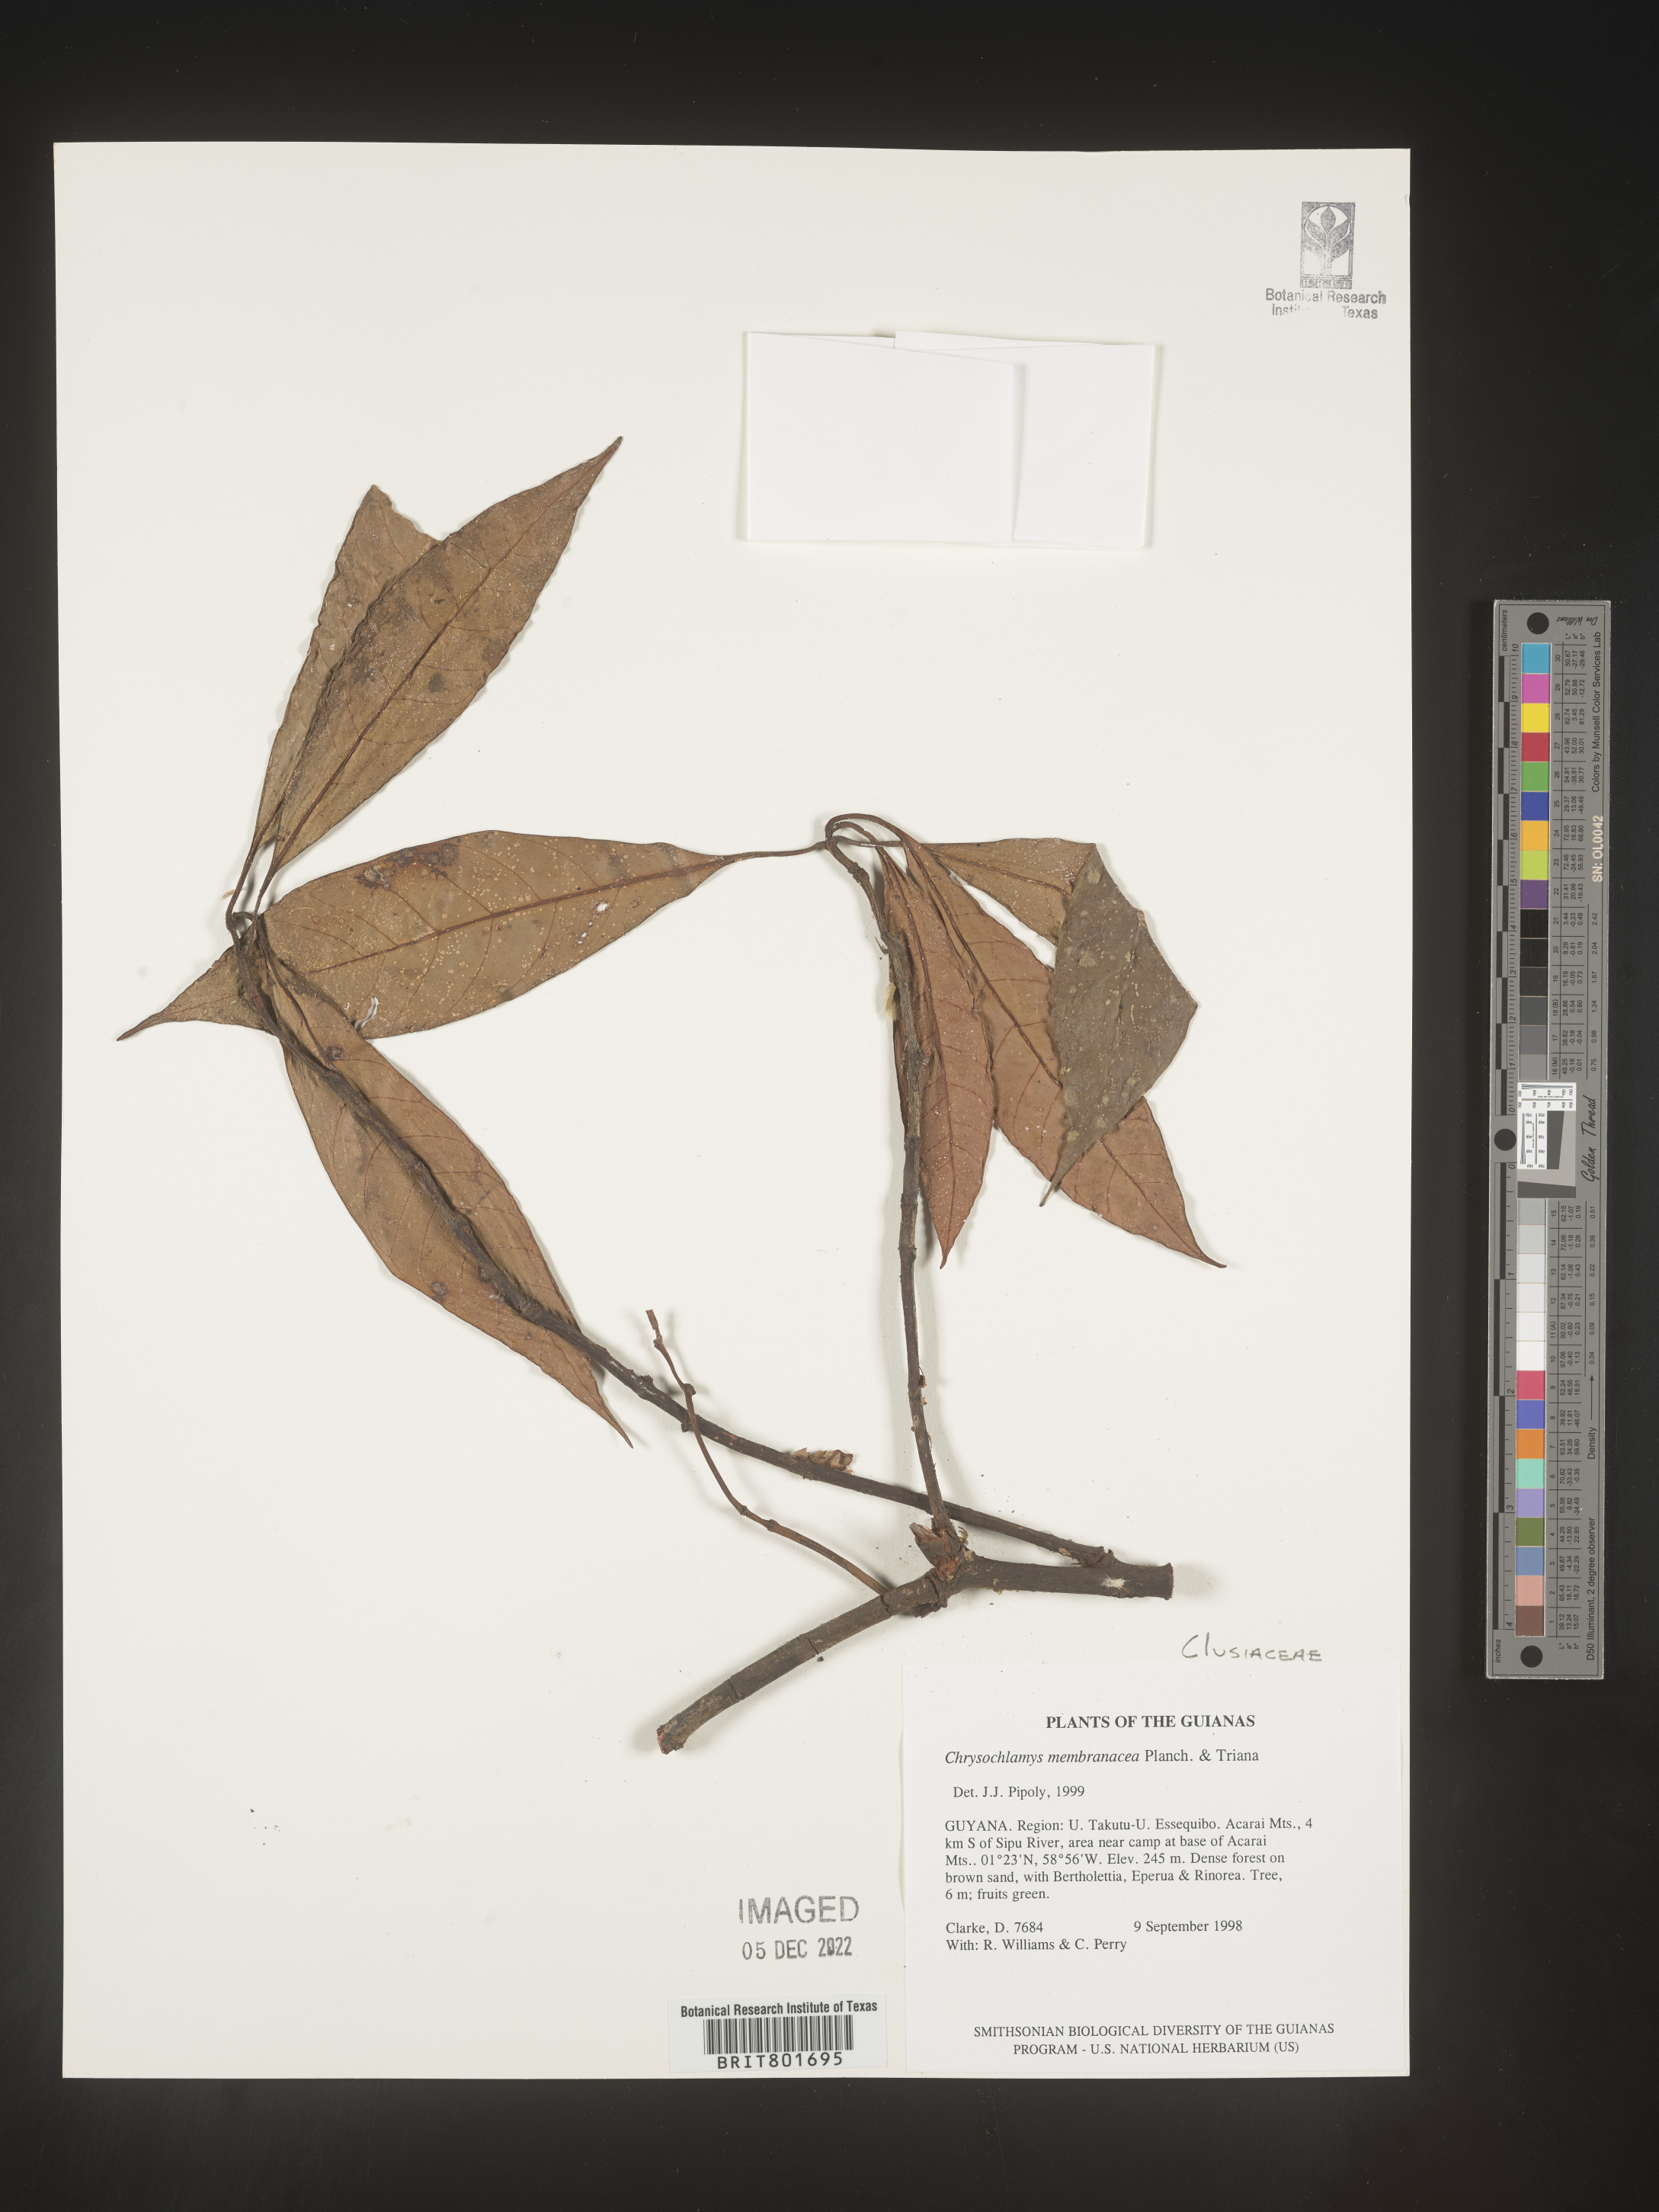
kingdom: Plantae
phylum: Tracheophyta
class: Magnoliopsida
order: Malpighiales
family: Clusiaceae
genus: Chrysochlamys
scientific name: Chrysochlamys
